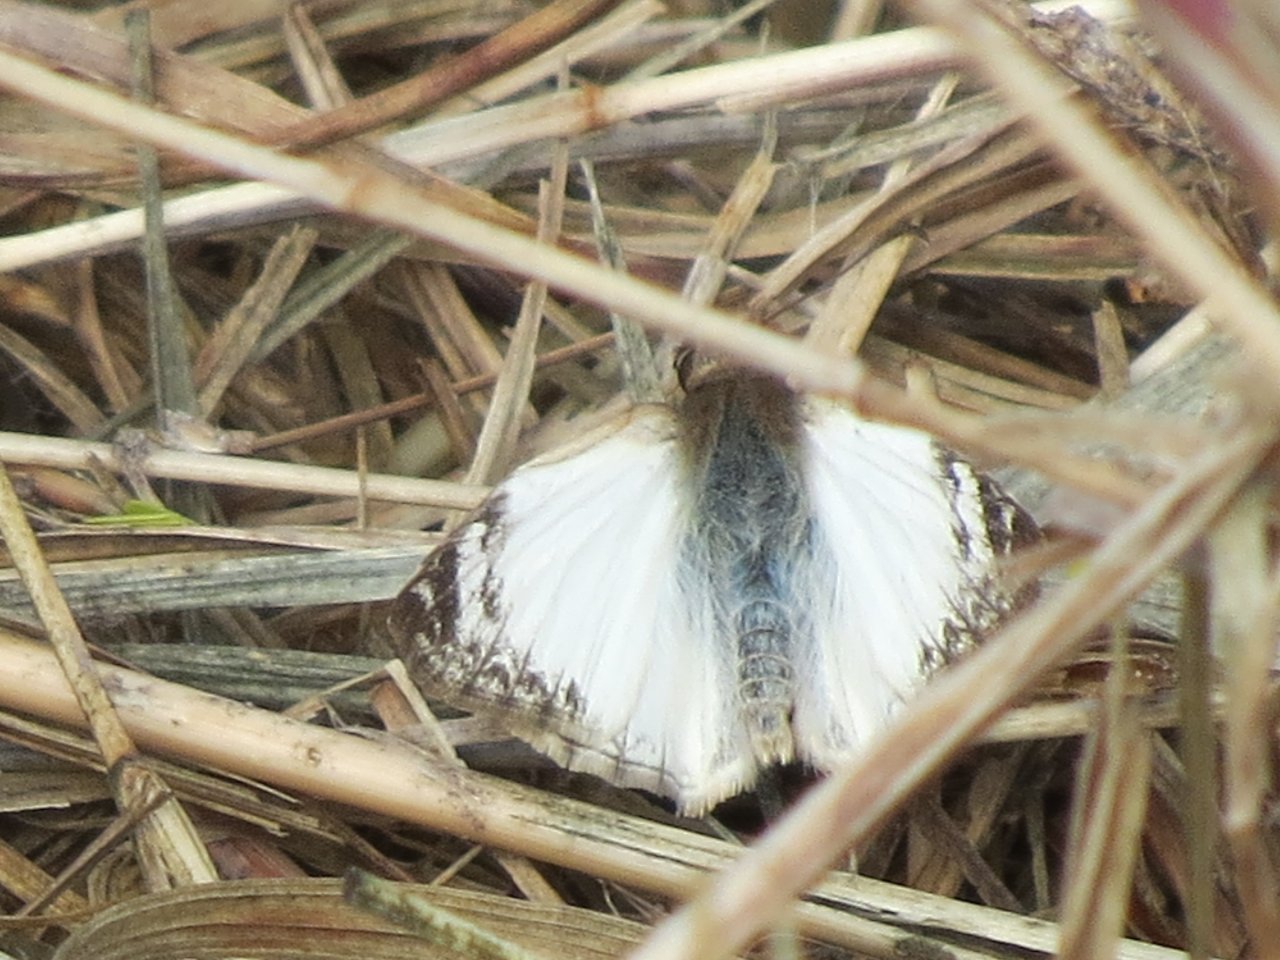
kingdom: Animalia
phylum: Arthropoda
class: Insecta
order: Lepidoptera
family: Hesperiidae
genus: Heliopetes
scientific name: Heliopetes laviana
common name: Laviana White-Skipper
